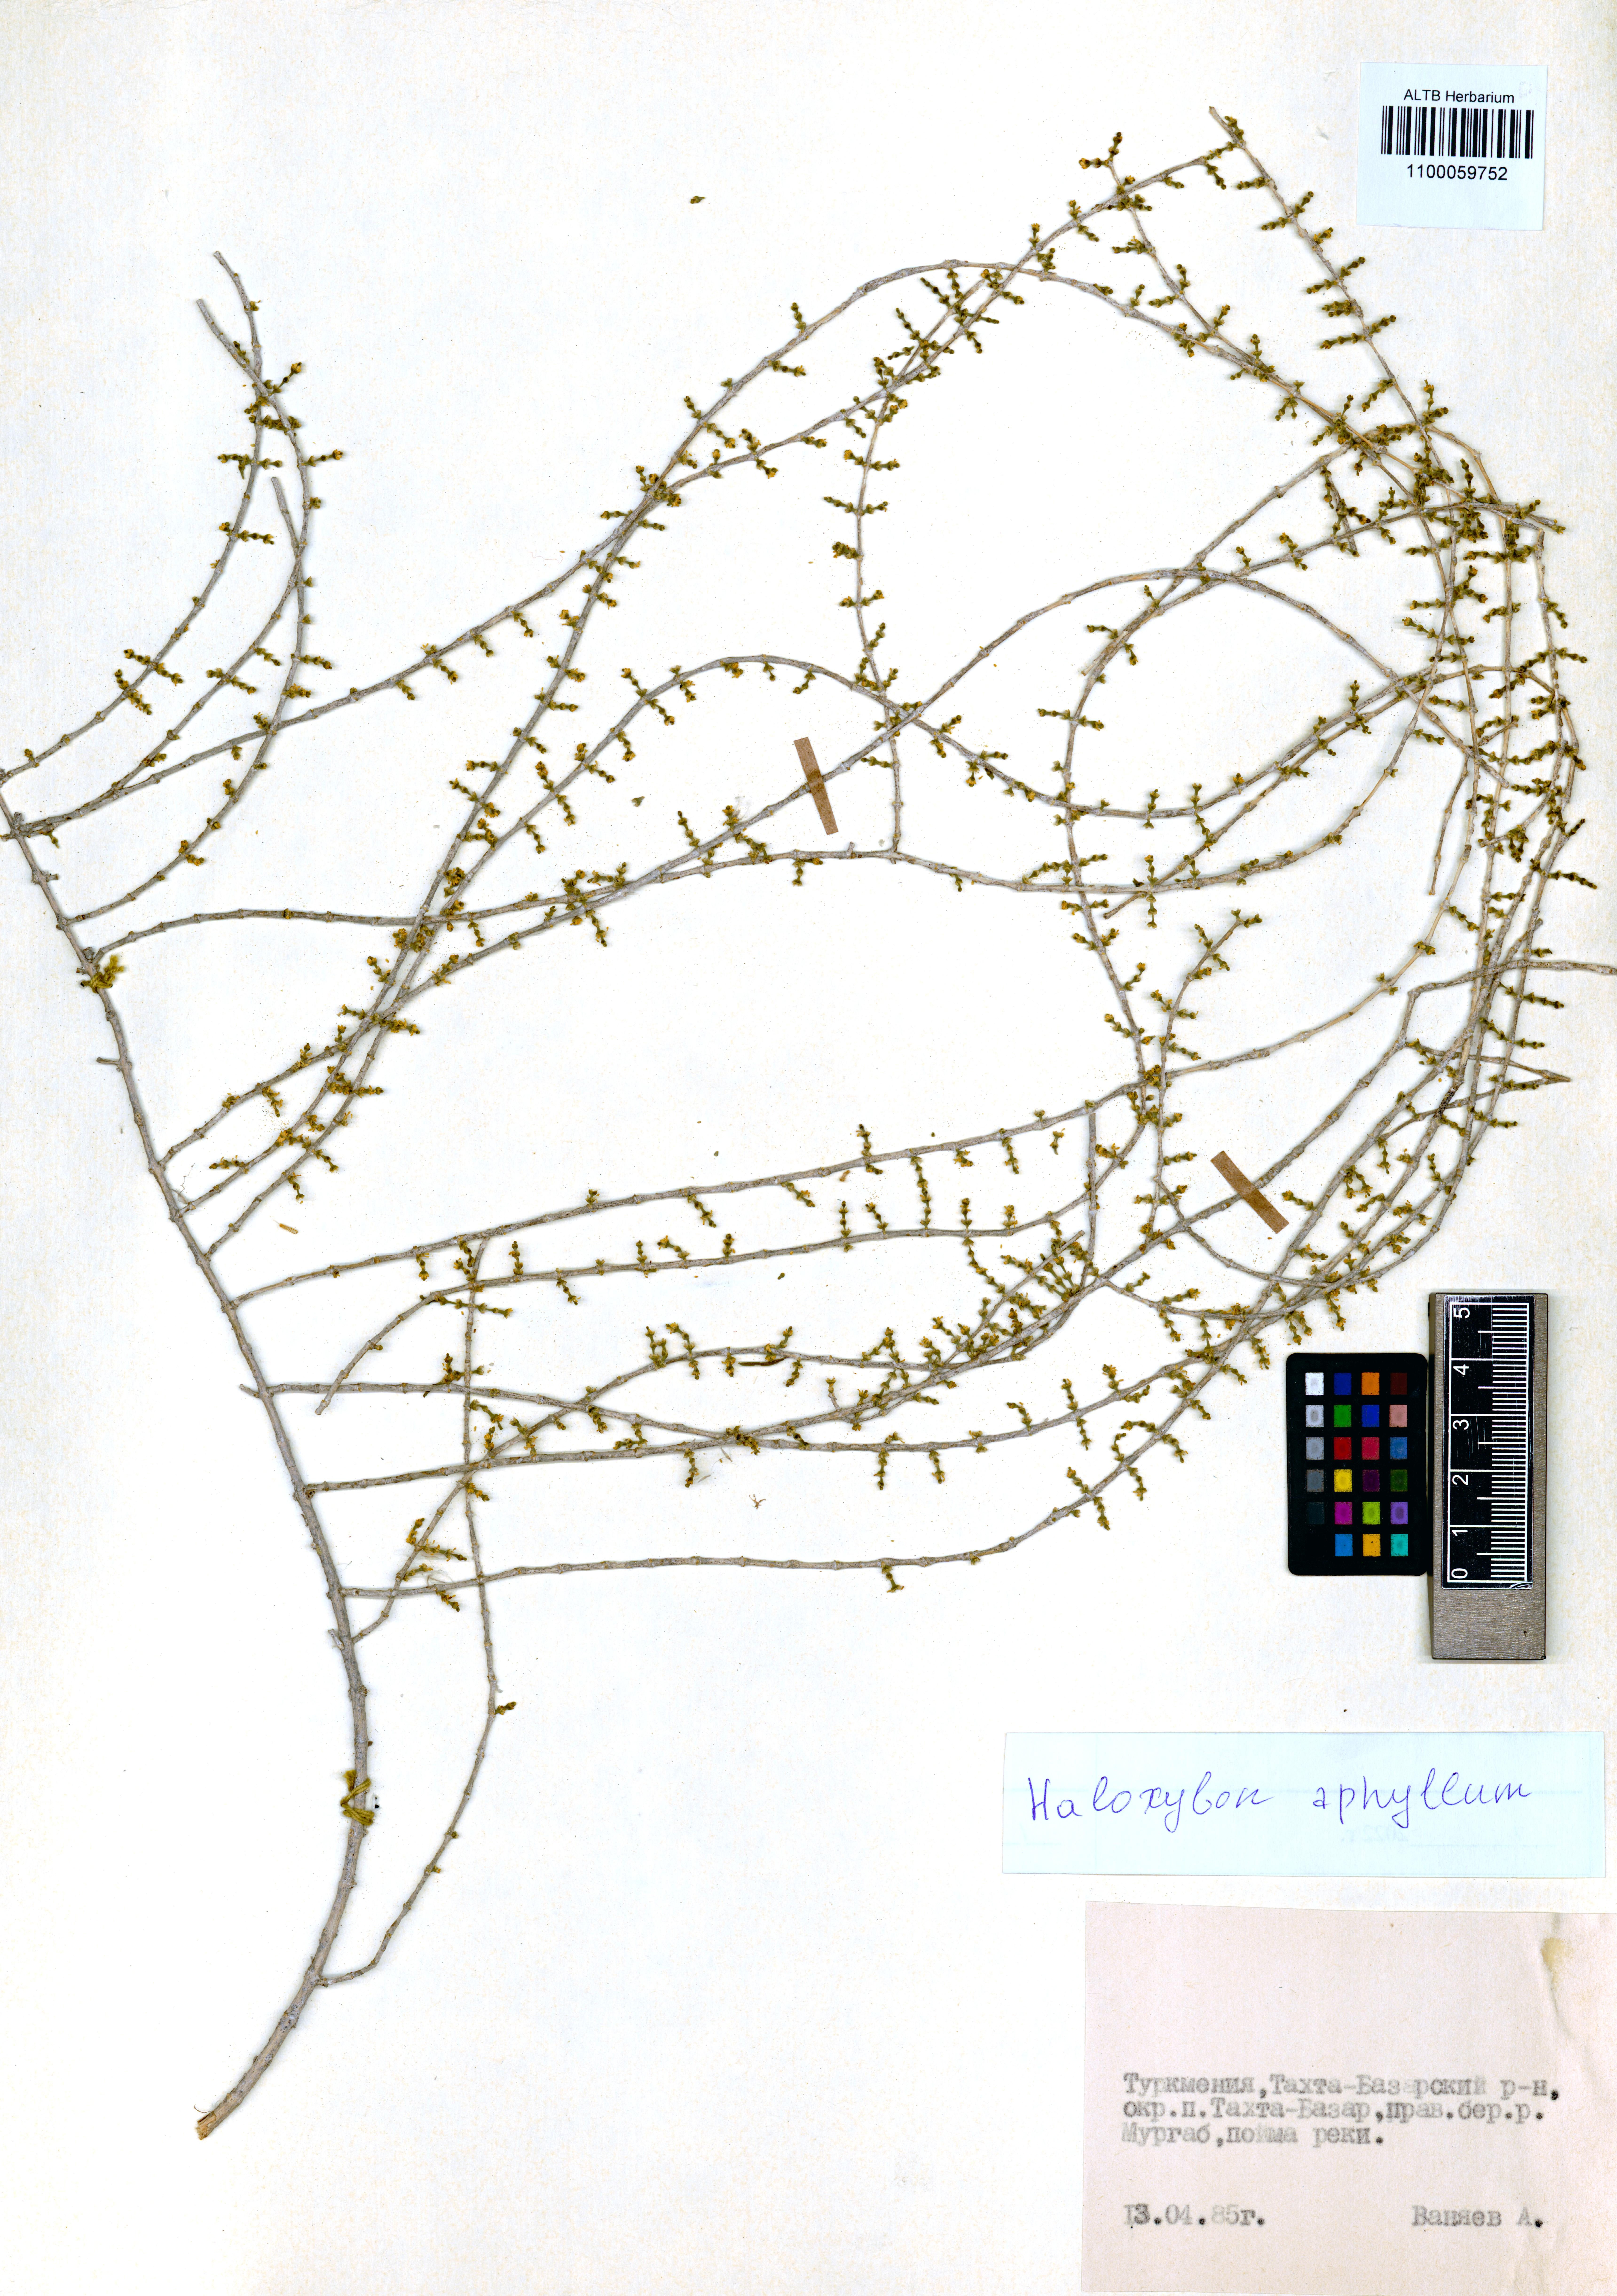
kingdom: Plantae
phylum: Tracheophyta
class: Magnoliopsida
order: Caryophyllales
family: Amaranthaceae
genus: Haloxylon
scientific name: Haloxylon ammodendron
